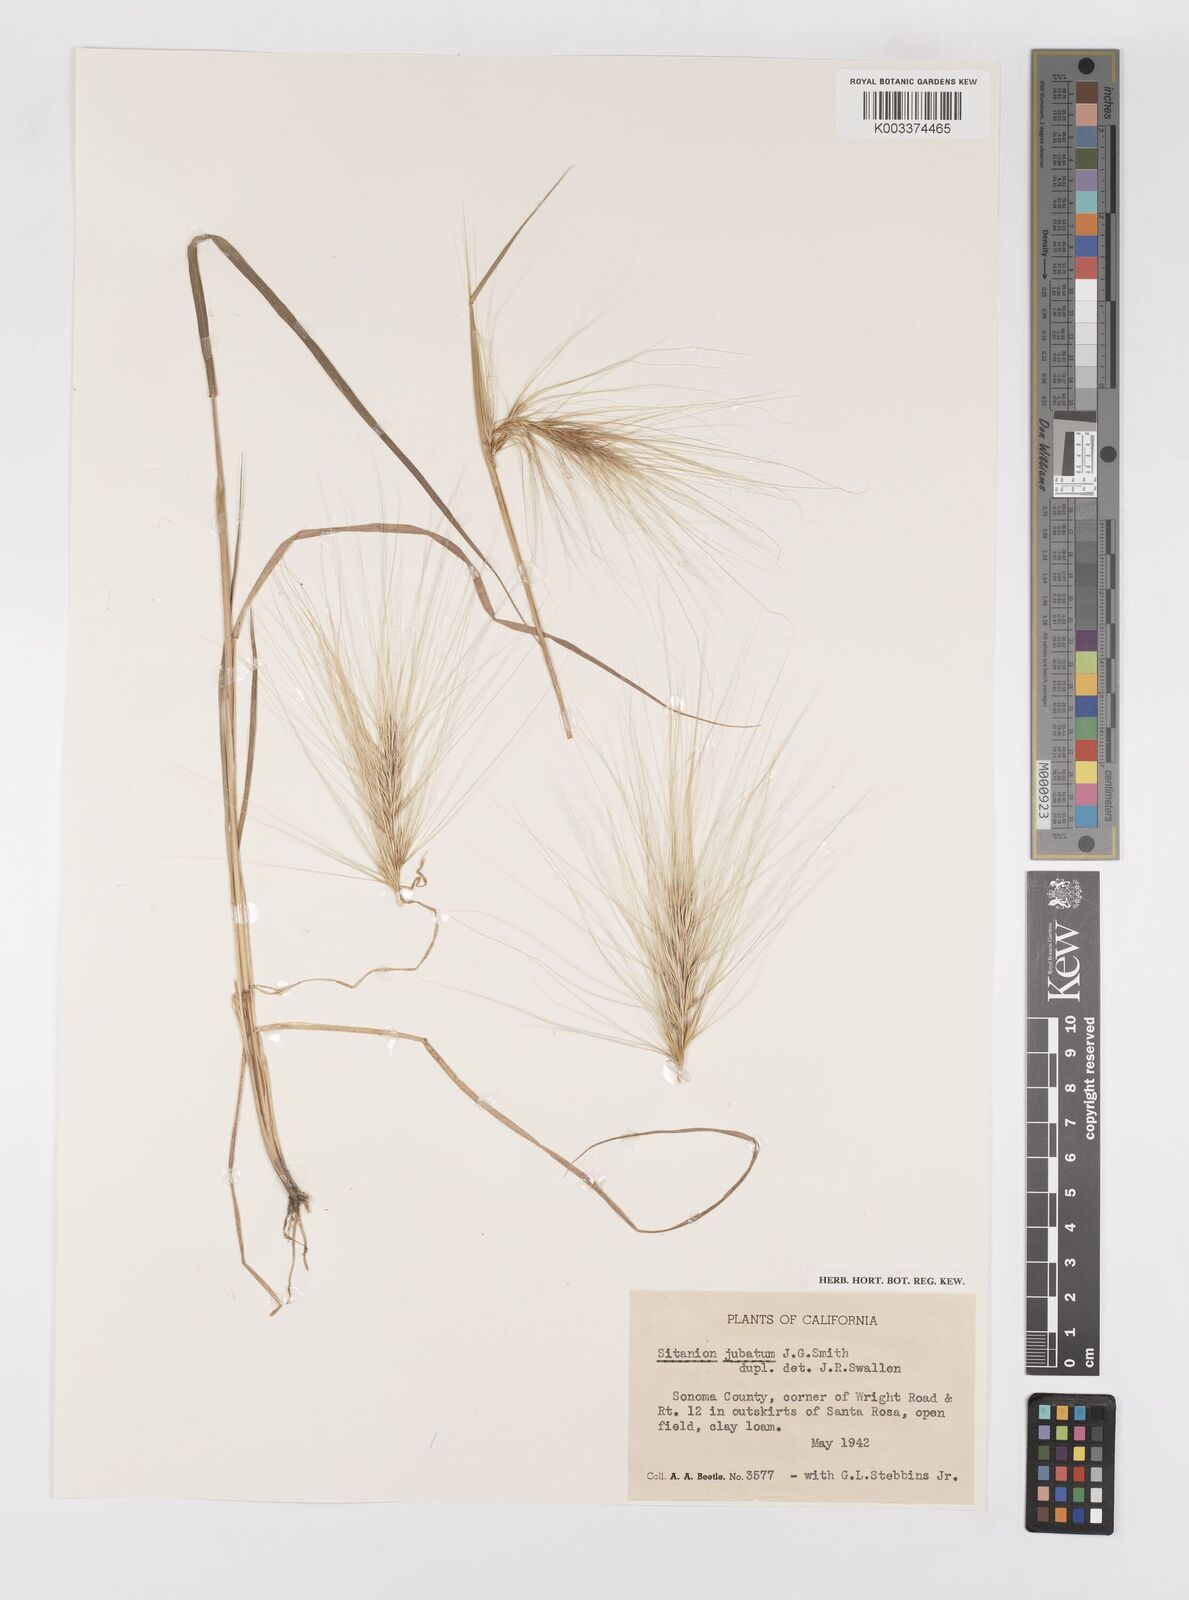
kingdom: Plantae
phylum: Tracheophyta
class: Liliopsida
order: Poales
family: Poaceae
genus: Elymus
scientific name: Elymus multisetus
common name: Big squirreltail
